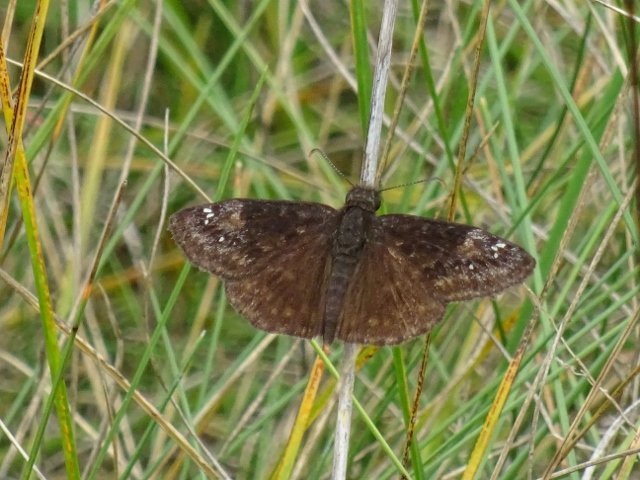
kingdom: Animalia
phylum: Arthropoda
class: Insecta
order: Lepidoptera
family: Hesperiidae
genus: Gesta
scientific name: Gesta
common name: Wild Indigo Duskywing
